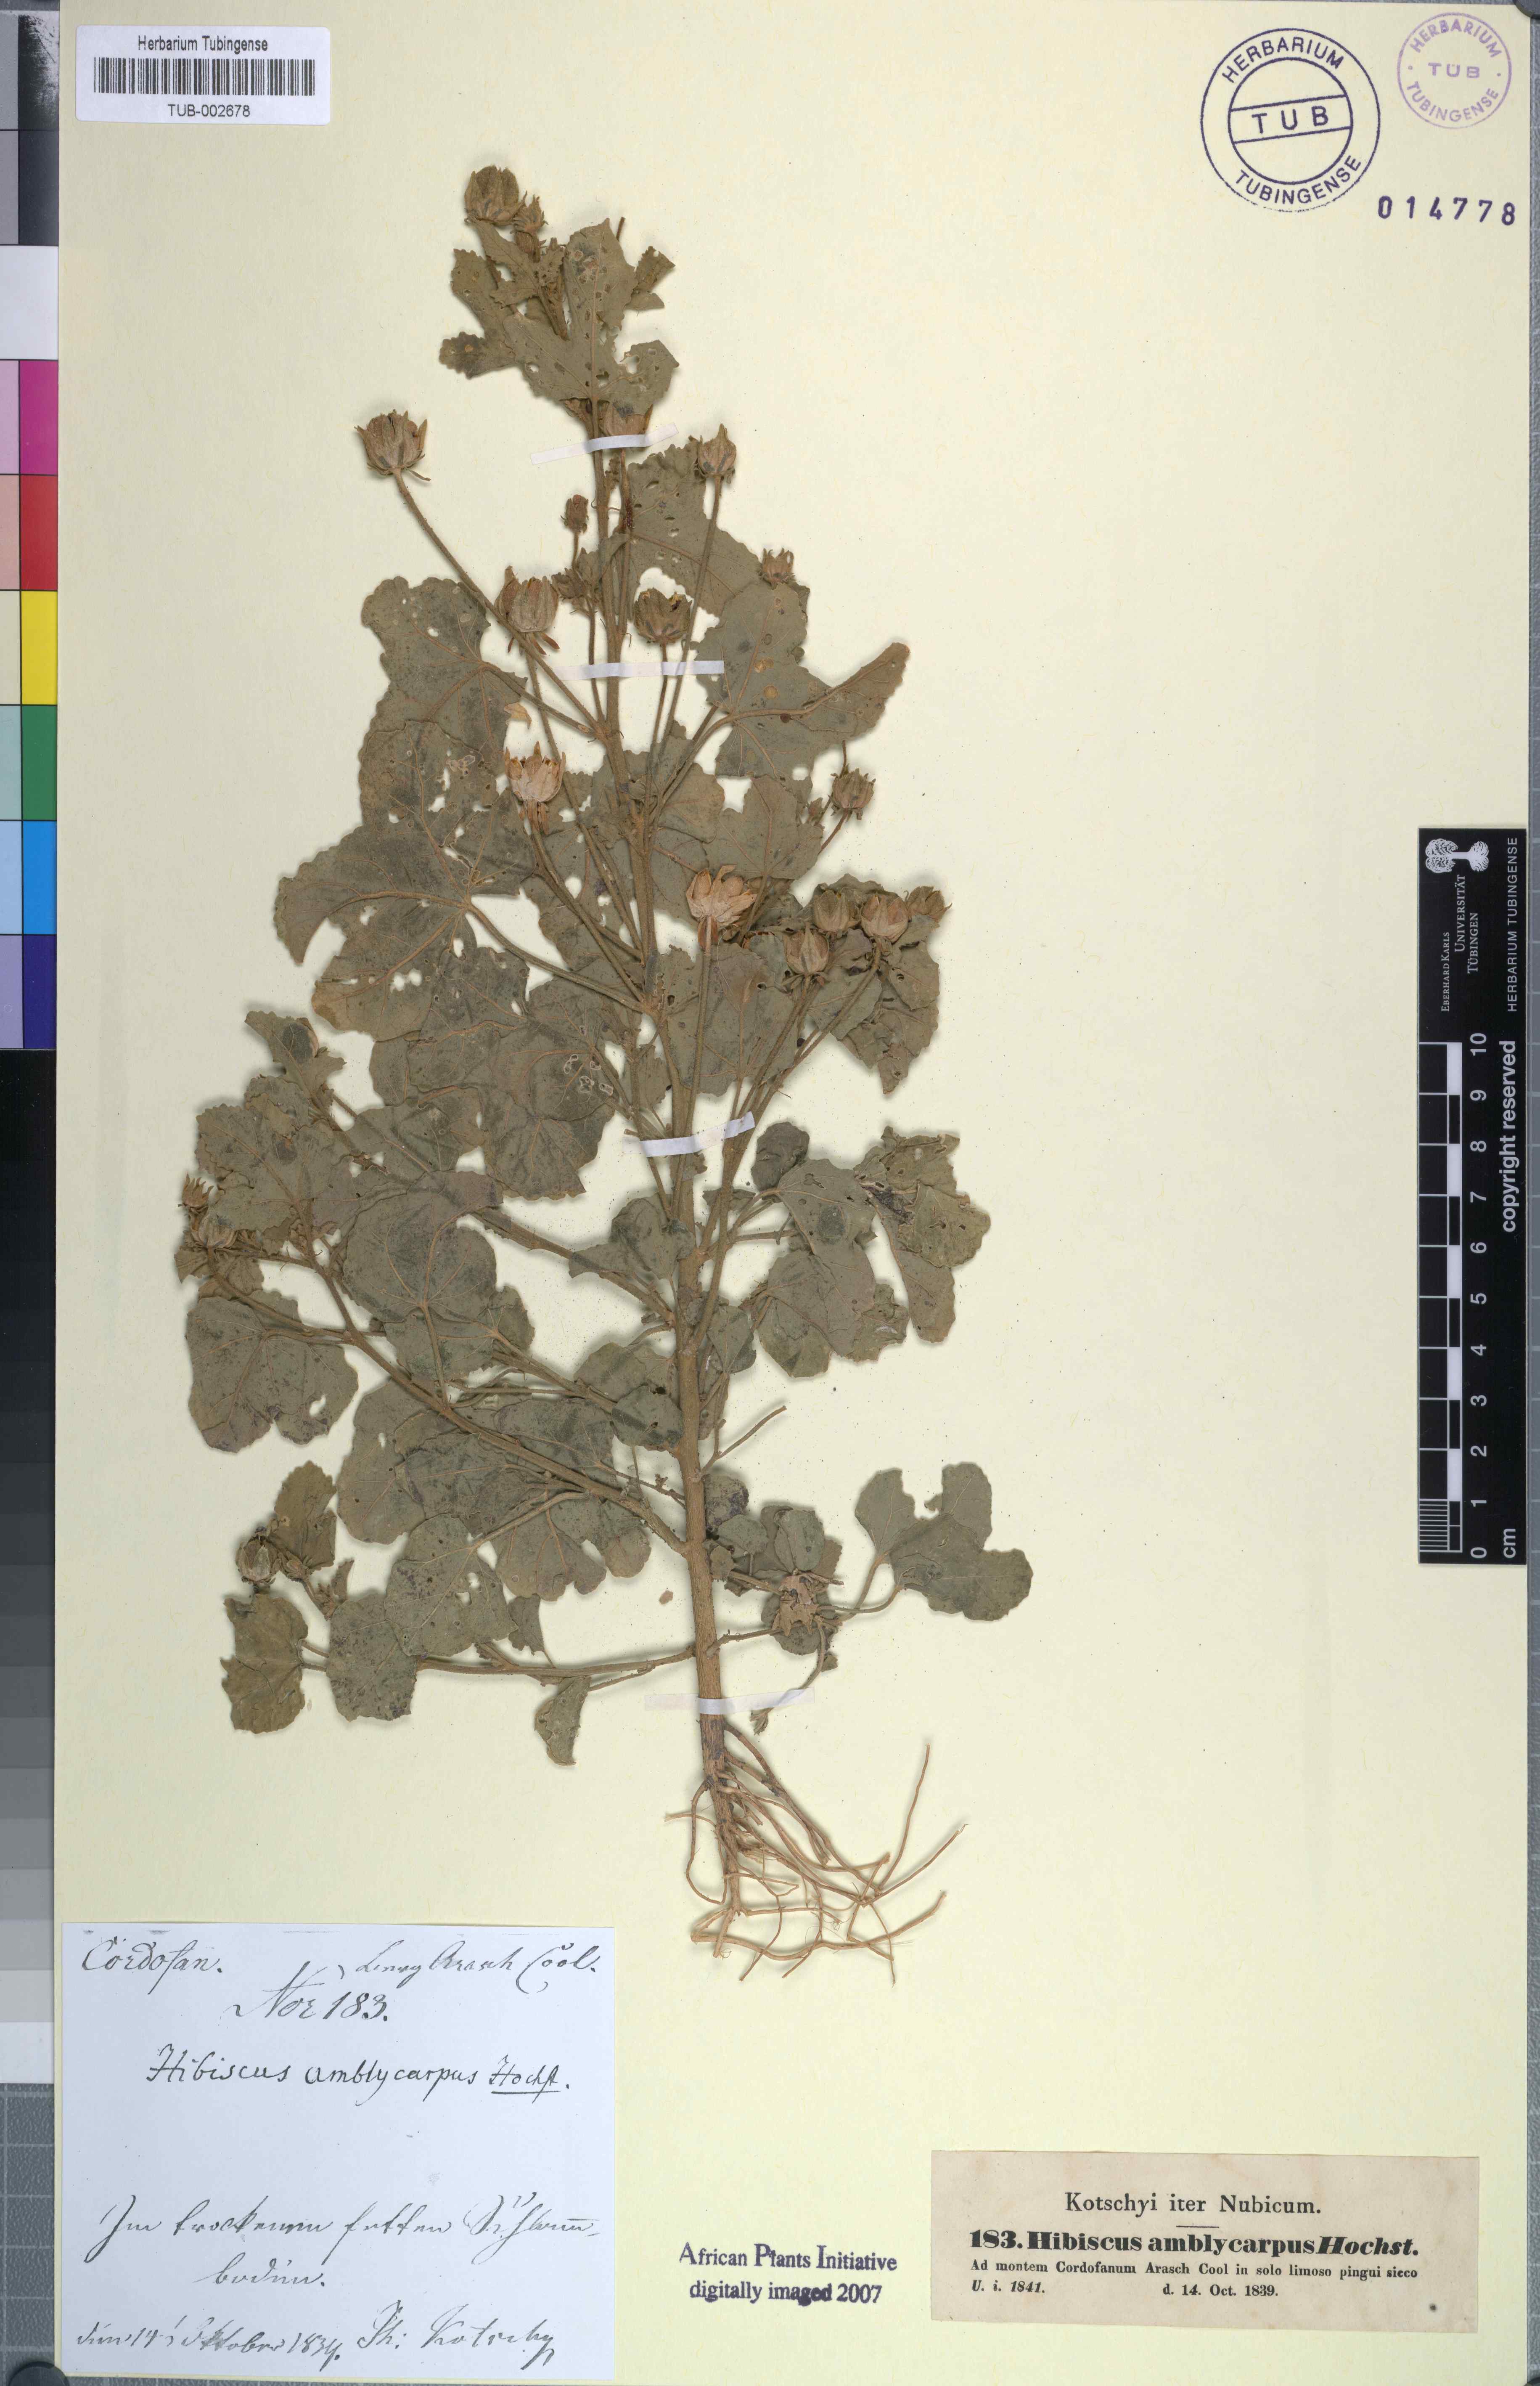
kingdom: Plantae
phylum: Tracheophyta
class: Magnoliopsida
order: Malvales
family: Malvaceae
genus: Hibiscus
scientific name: Hibiscus obtusilobus
